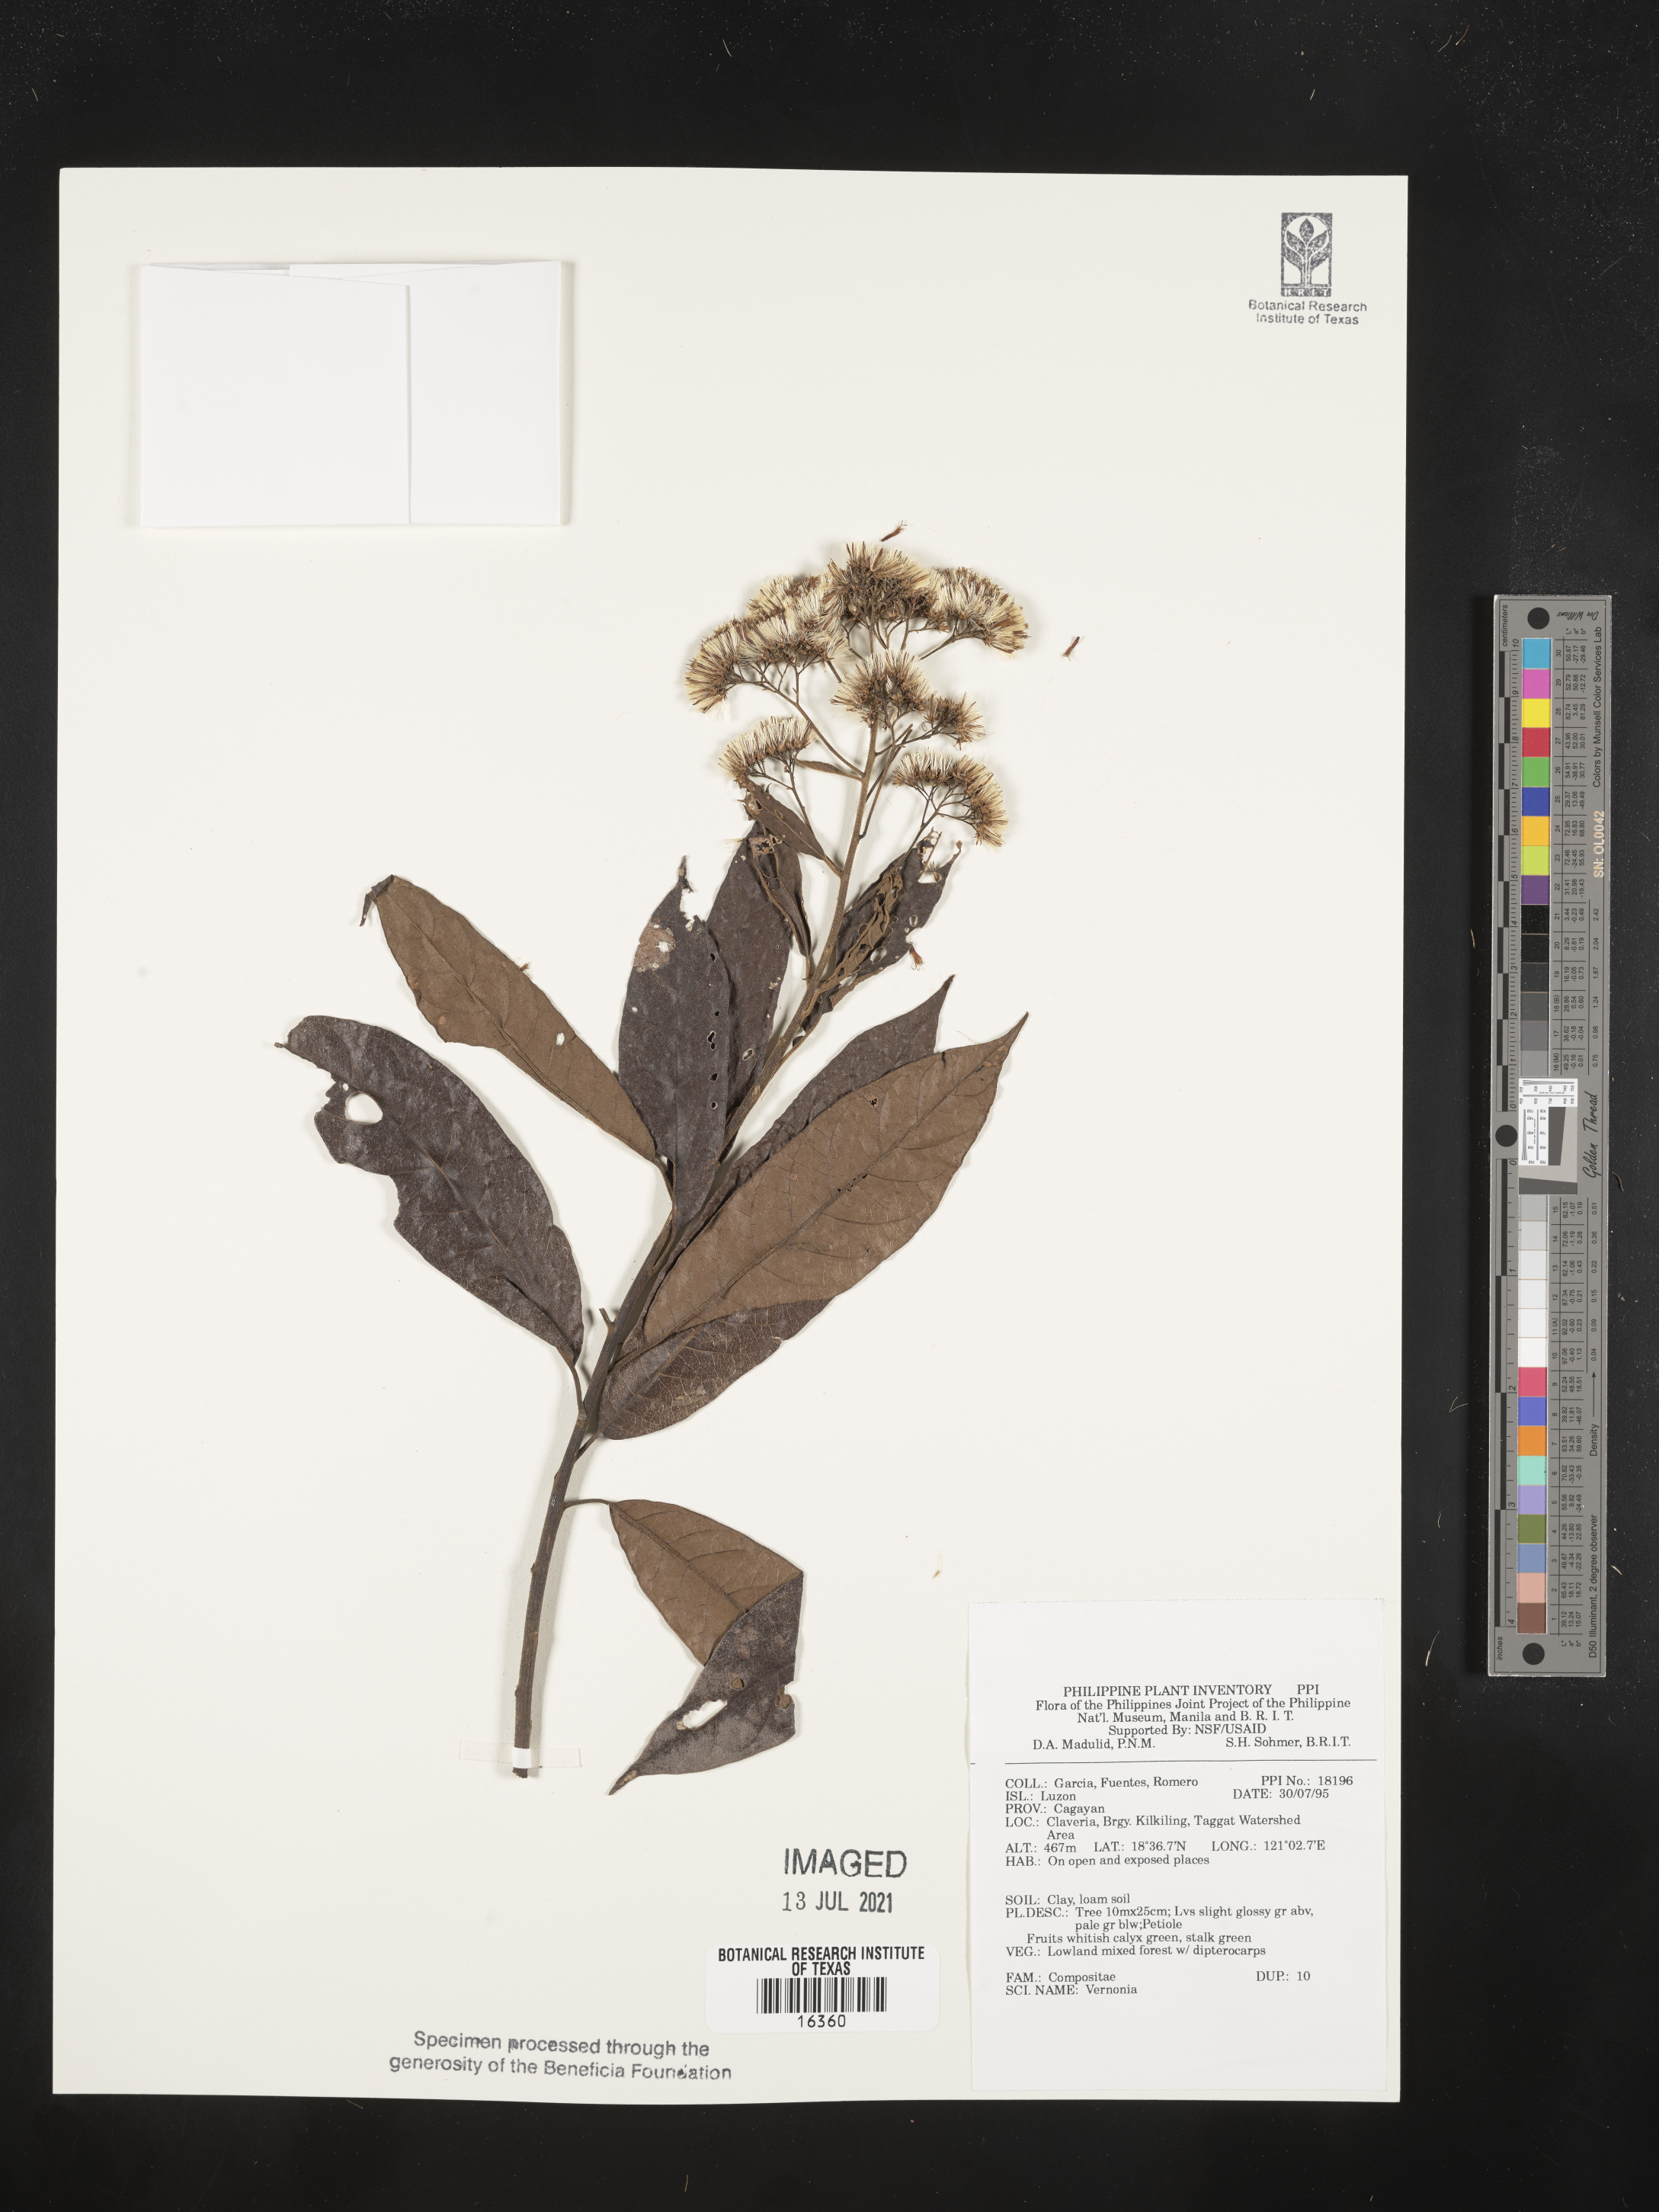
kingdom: Plantae
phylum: Tracheophyta
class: Magnoliopsida
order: Asterales
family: Asteraceae
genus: Vernonia
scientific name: Vernonia
